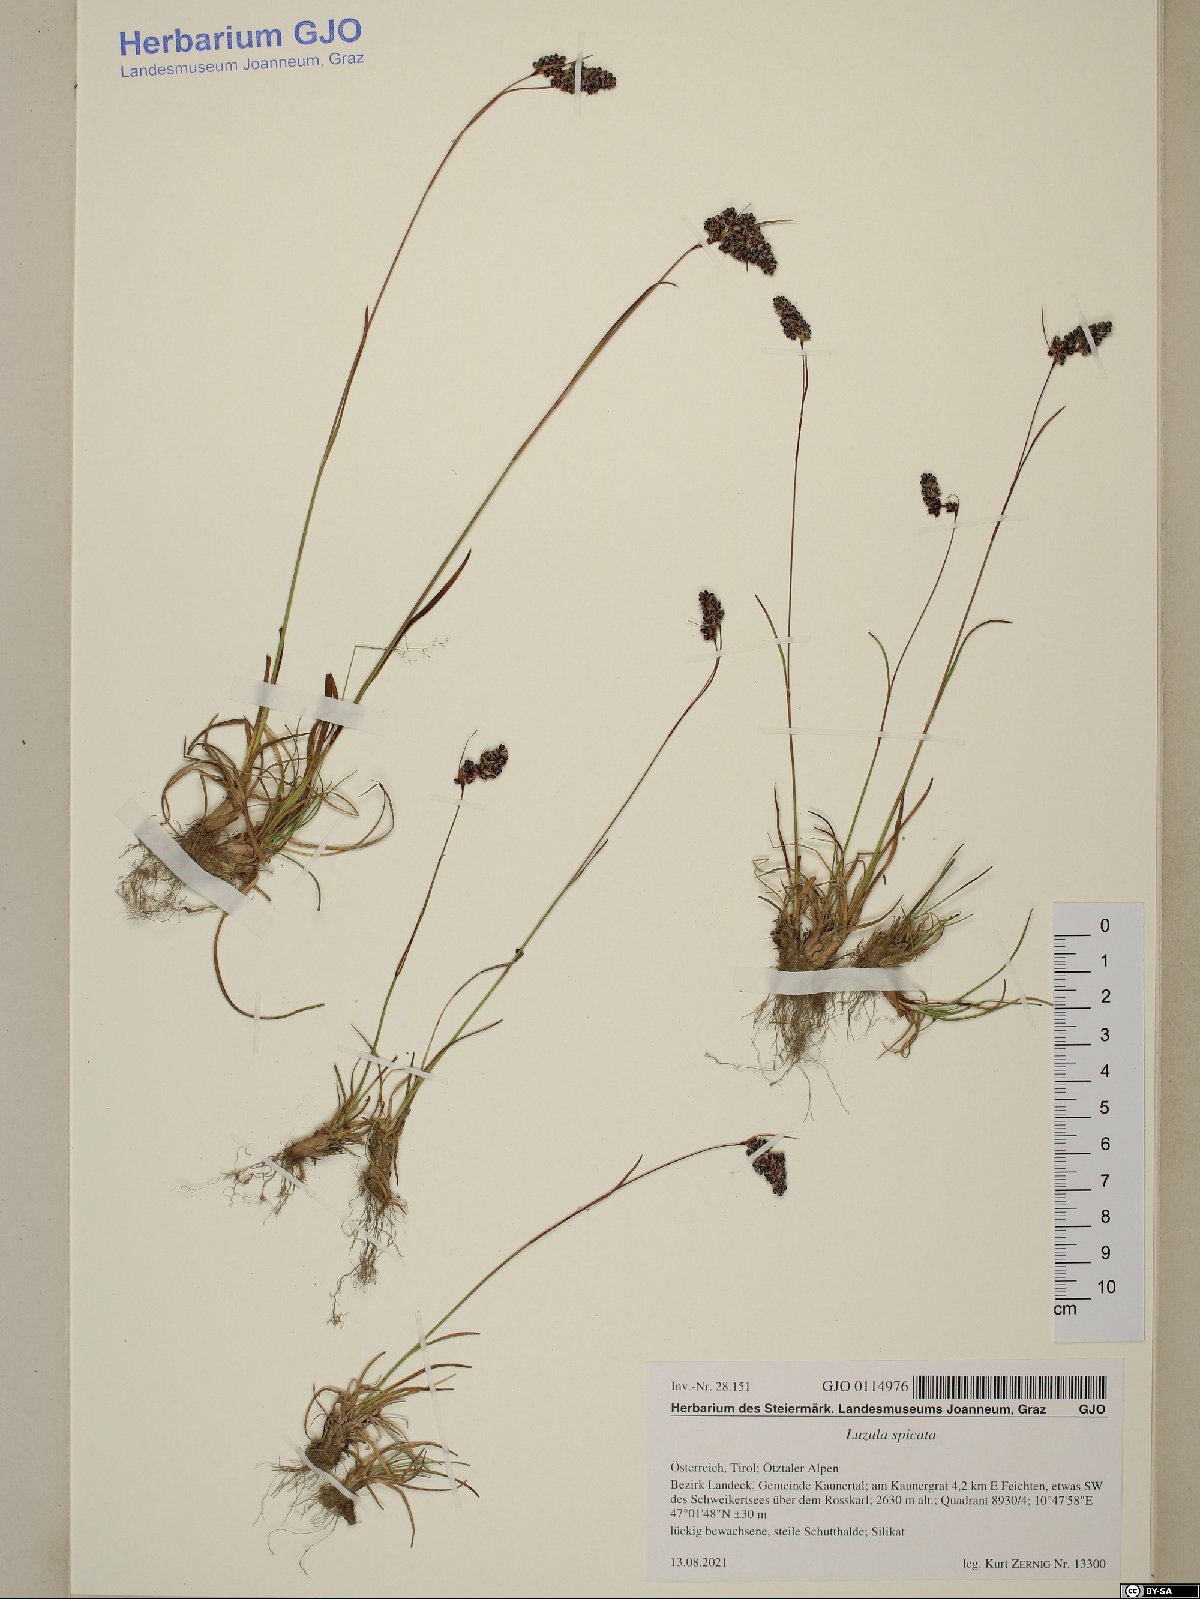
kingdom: Plantae
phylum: Tracheophyta
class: Liliopsida
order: Poales
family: Juncaceae
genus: Luzula
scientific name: Luzula spicata
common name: Spiked wood-rush
